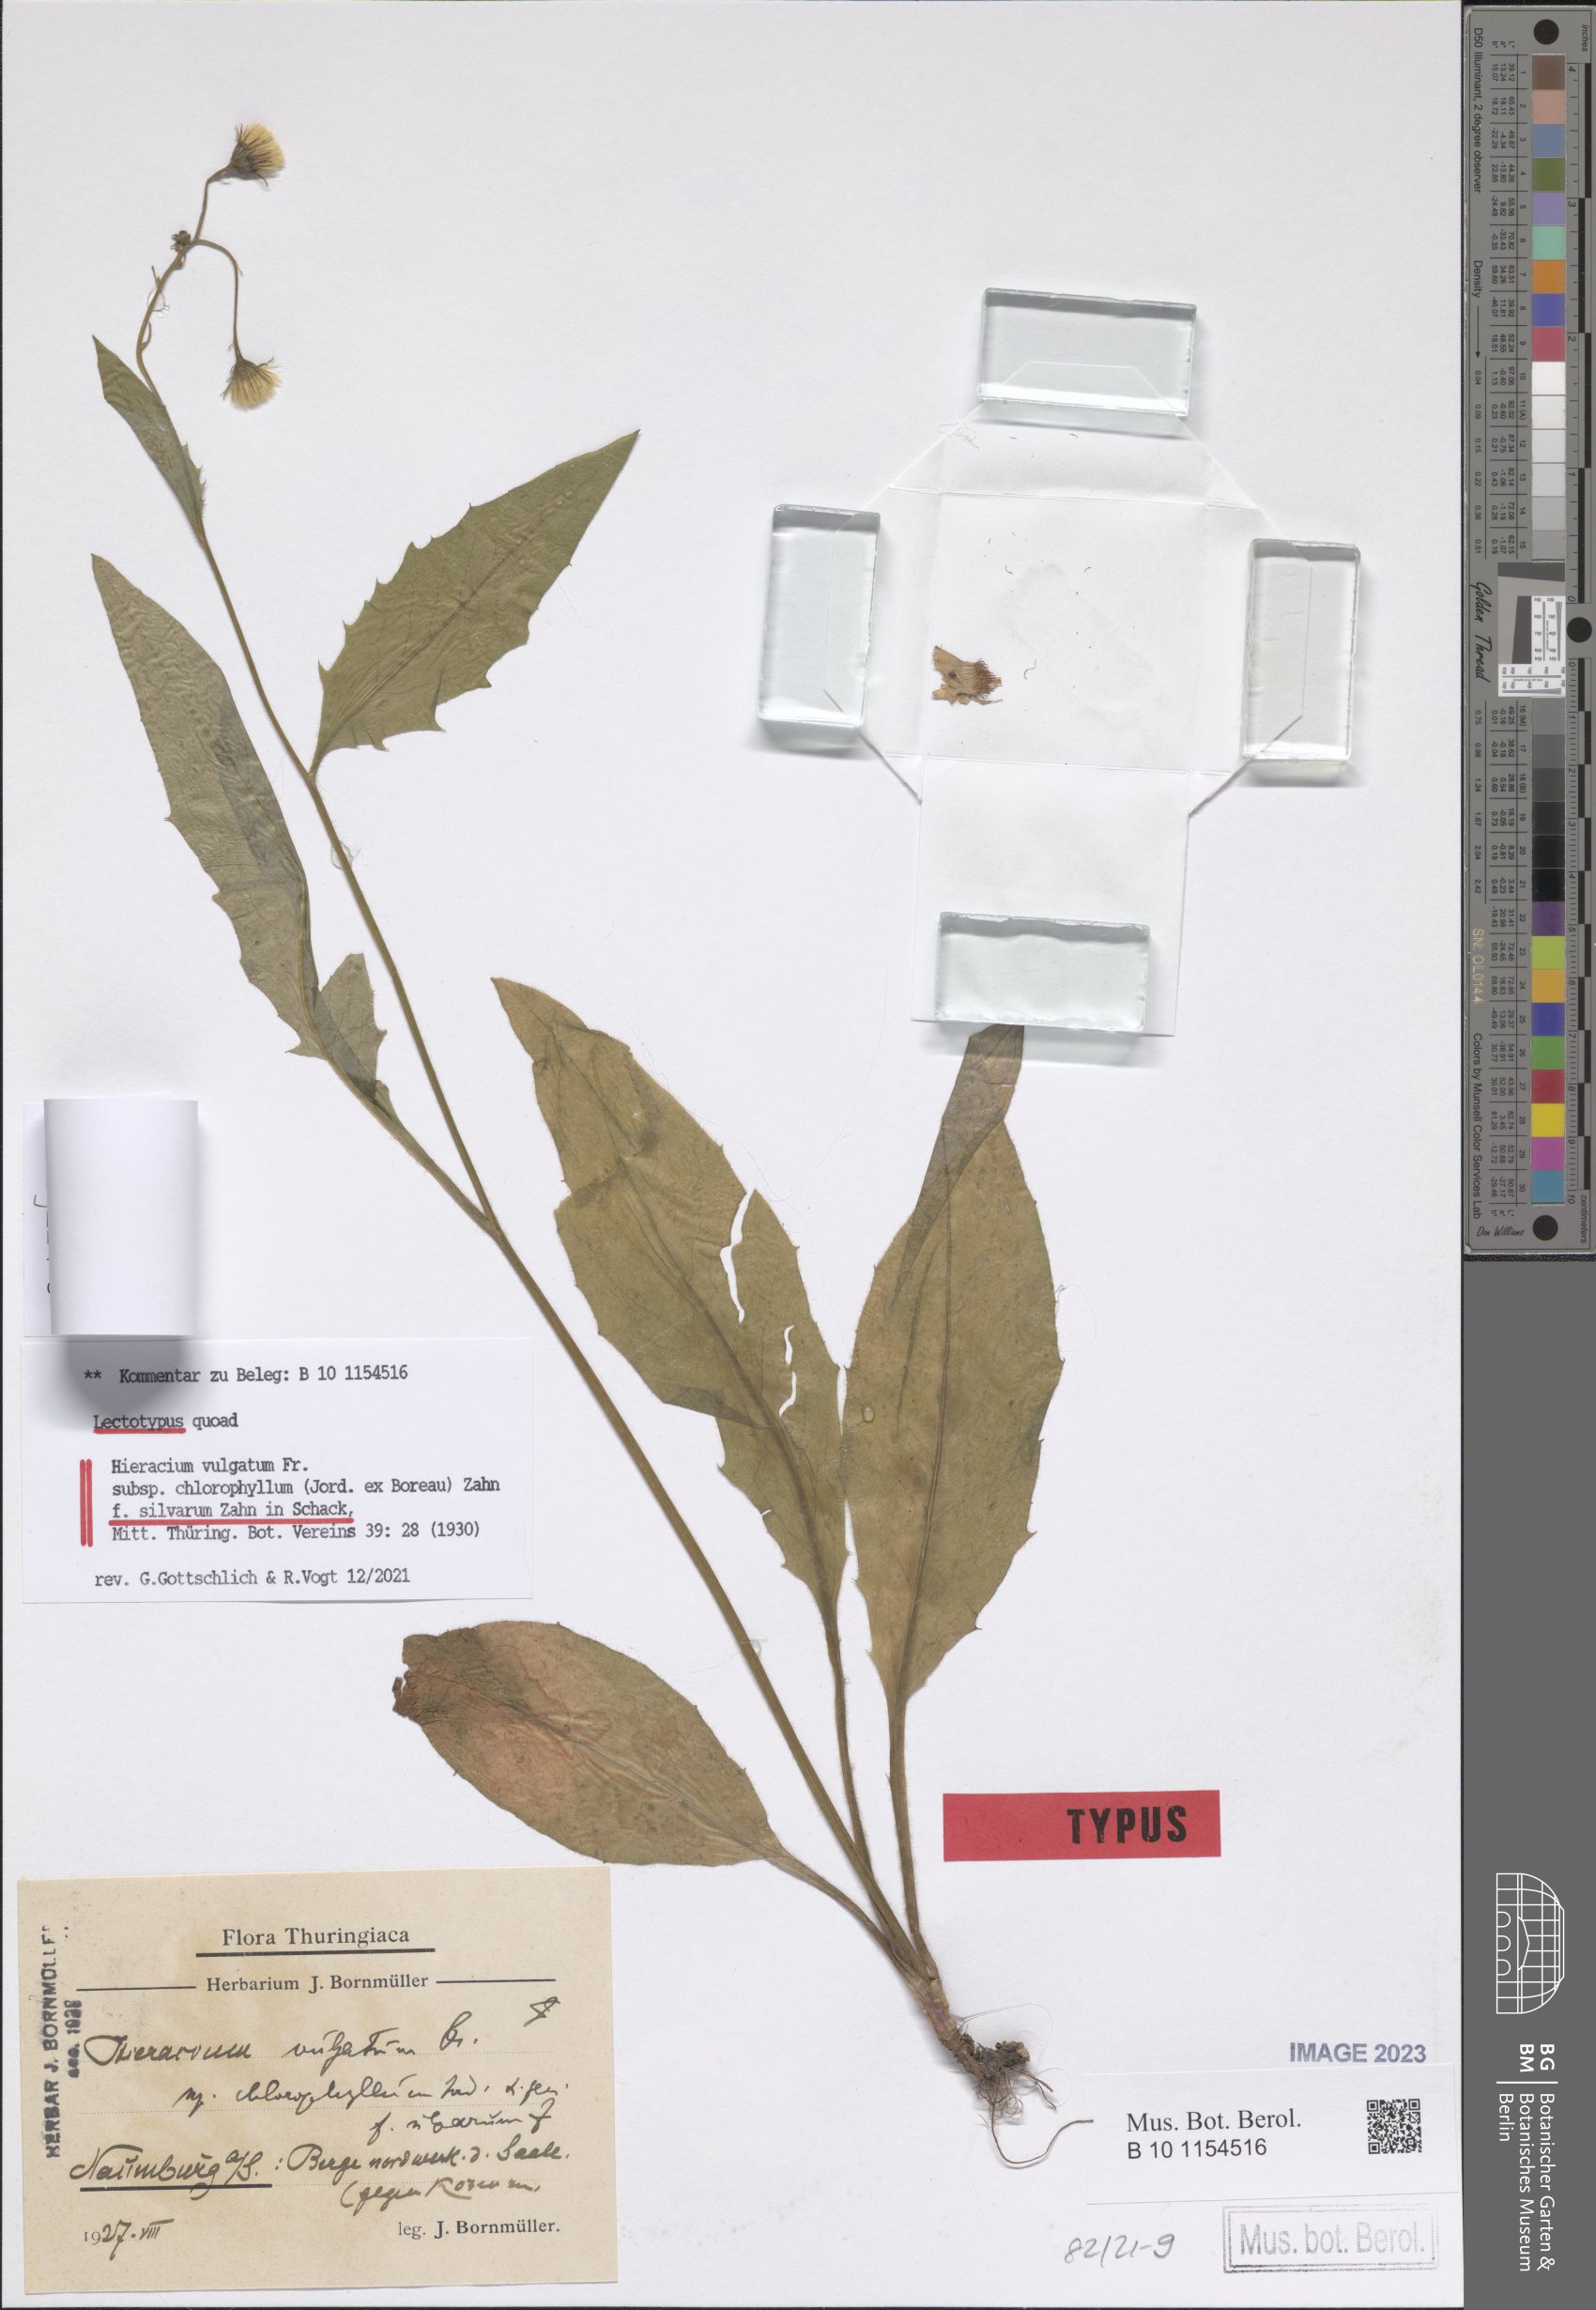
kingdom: Plantae
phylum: Tracheophyta
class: Magnoliopsida
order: Asterales
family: Asteraceae
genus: Hieracium
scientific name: Hieracium vulgatum
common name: Common hawkweed
